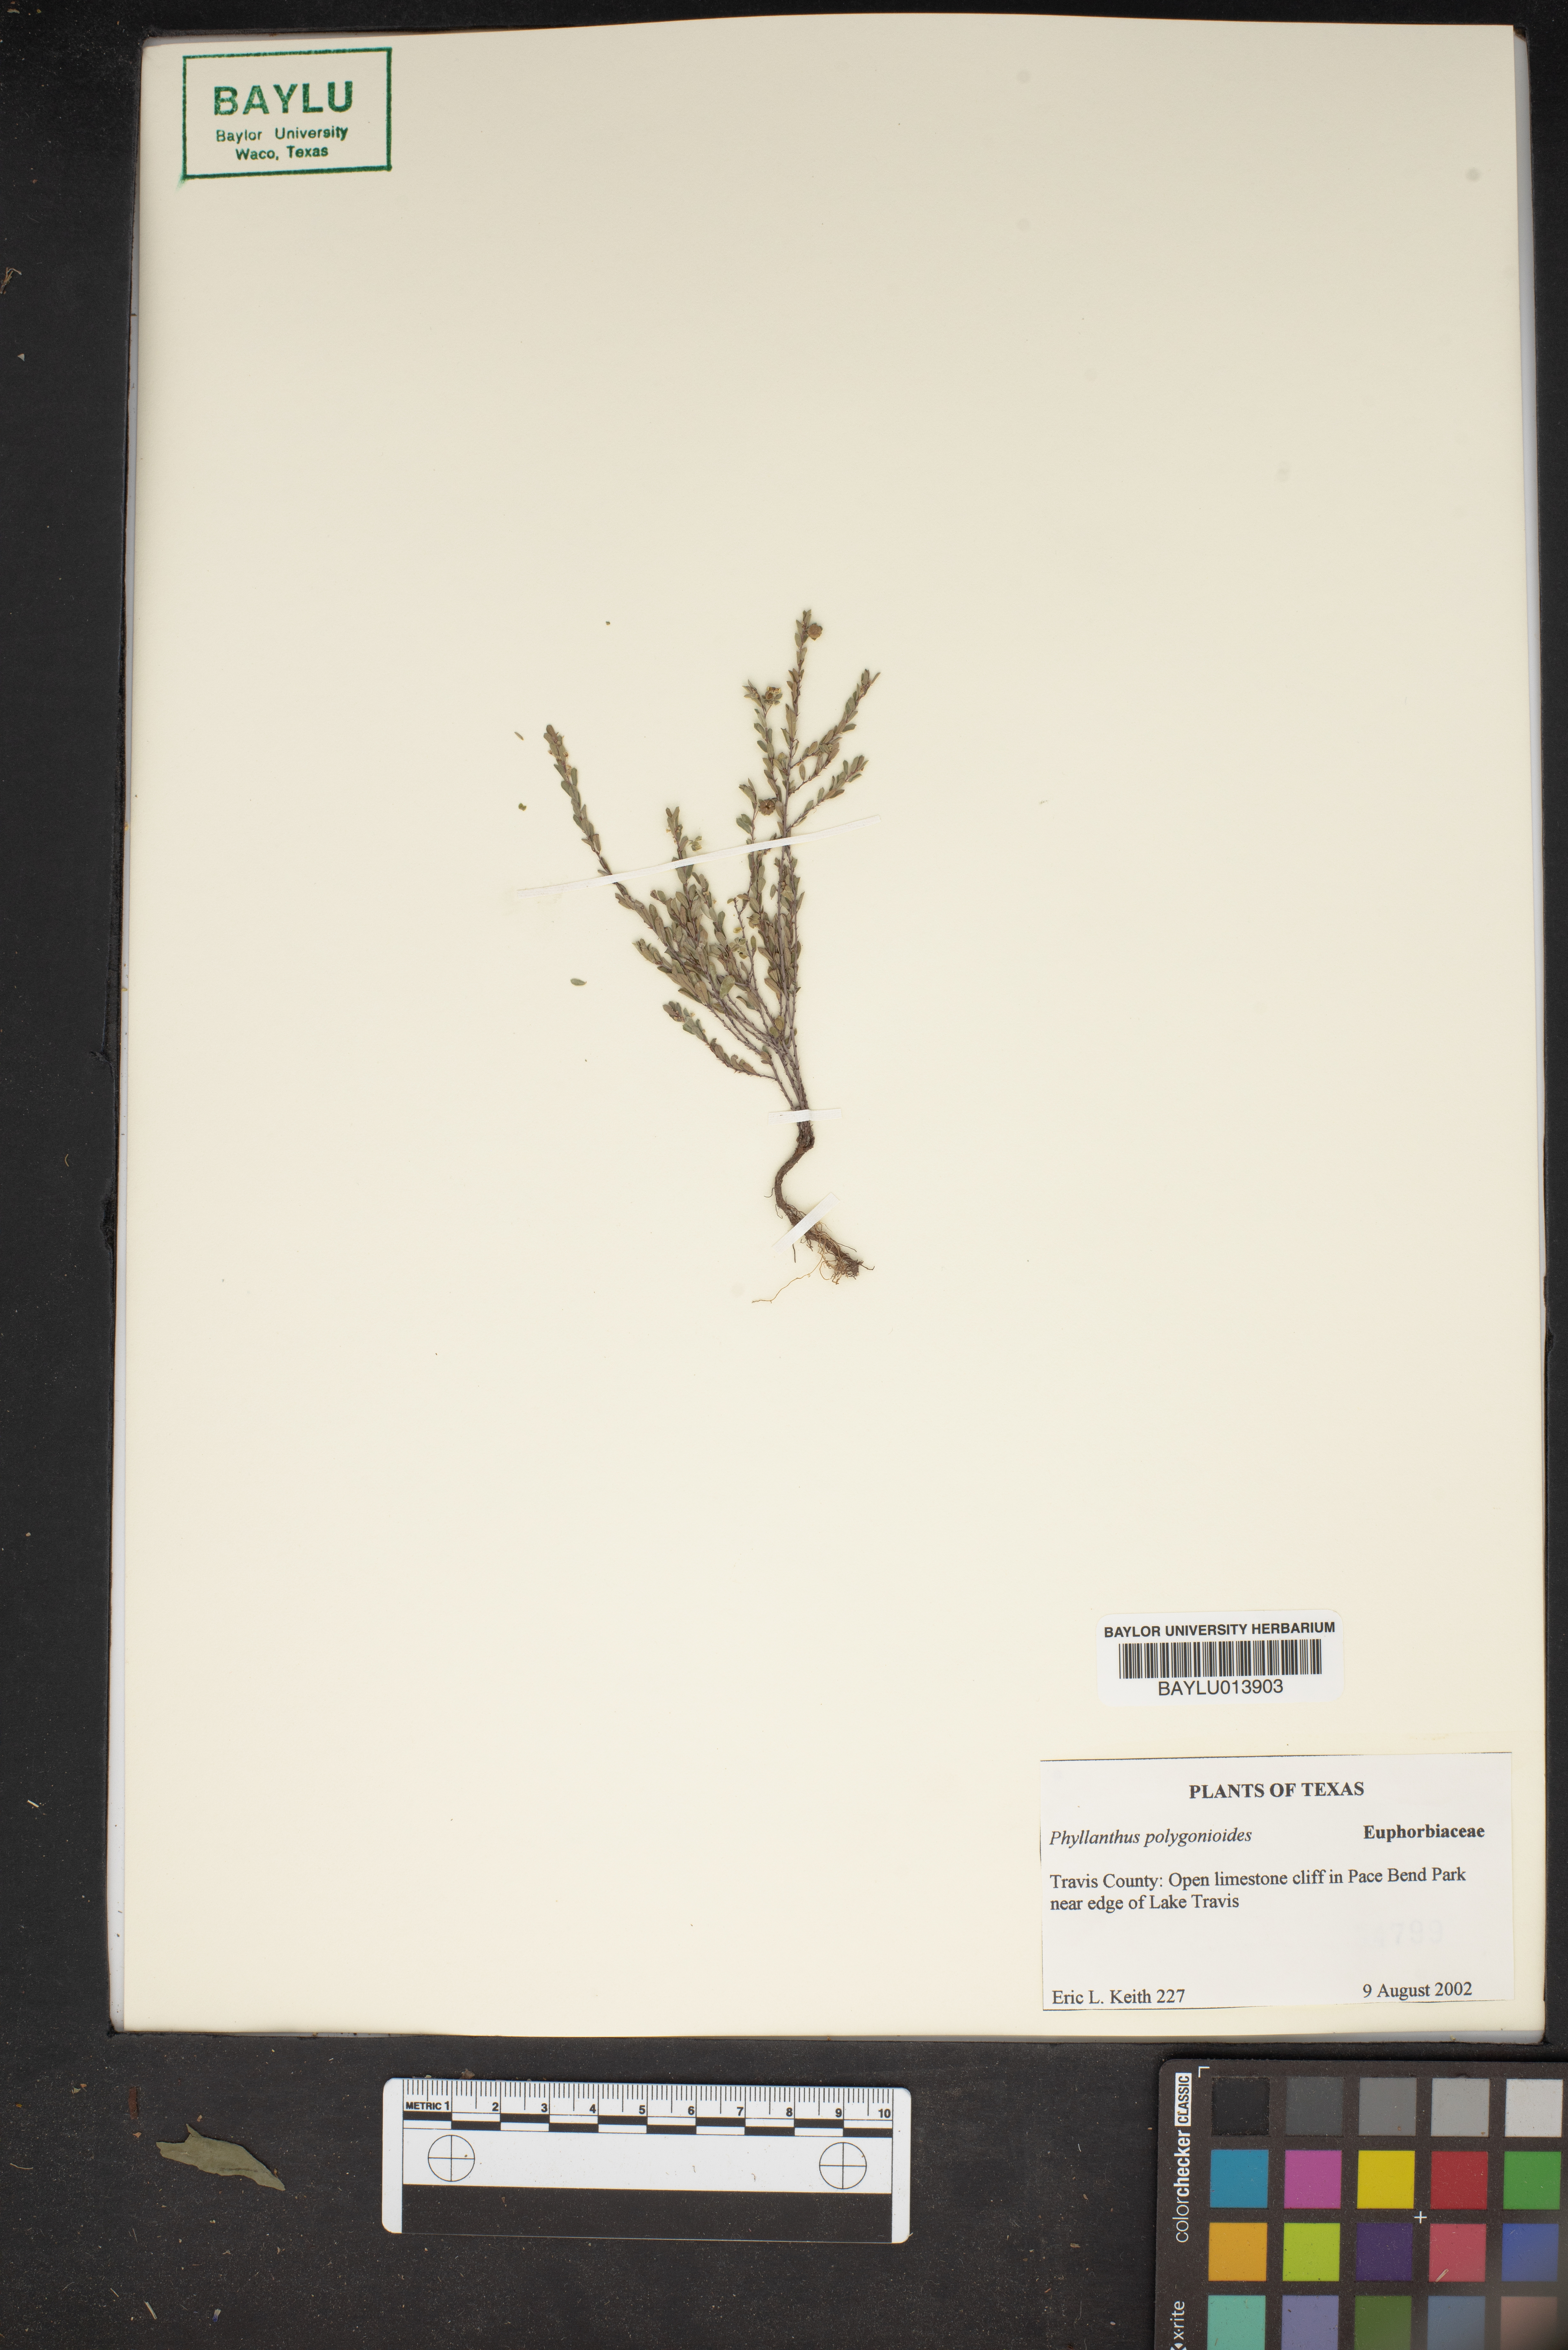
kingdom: Plantae
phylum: Tracheophyta
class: Magnoliopsida
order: Malpighiales
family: Phyllanthaceae
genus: Phyllanthus
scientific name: Phyllanthus polygonoides
